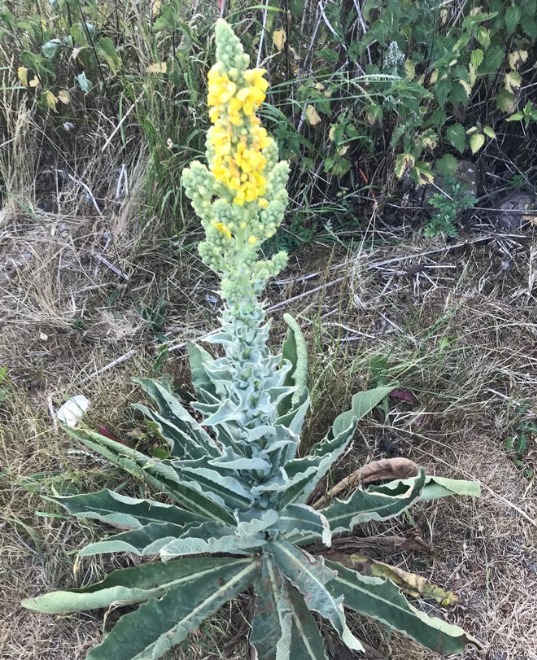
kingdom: Plantae
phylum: Tracheophyta
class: Magnoliopsida
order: Lamiales
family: Scrophulariaceae
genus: Verbascum
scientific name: Verbascum speciosum
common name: Kandelaber-kongelys
